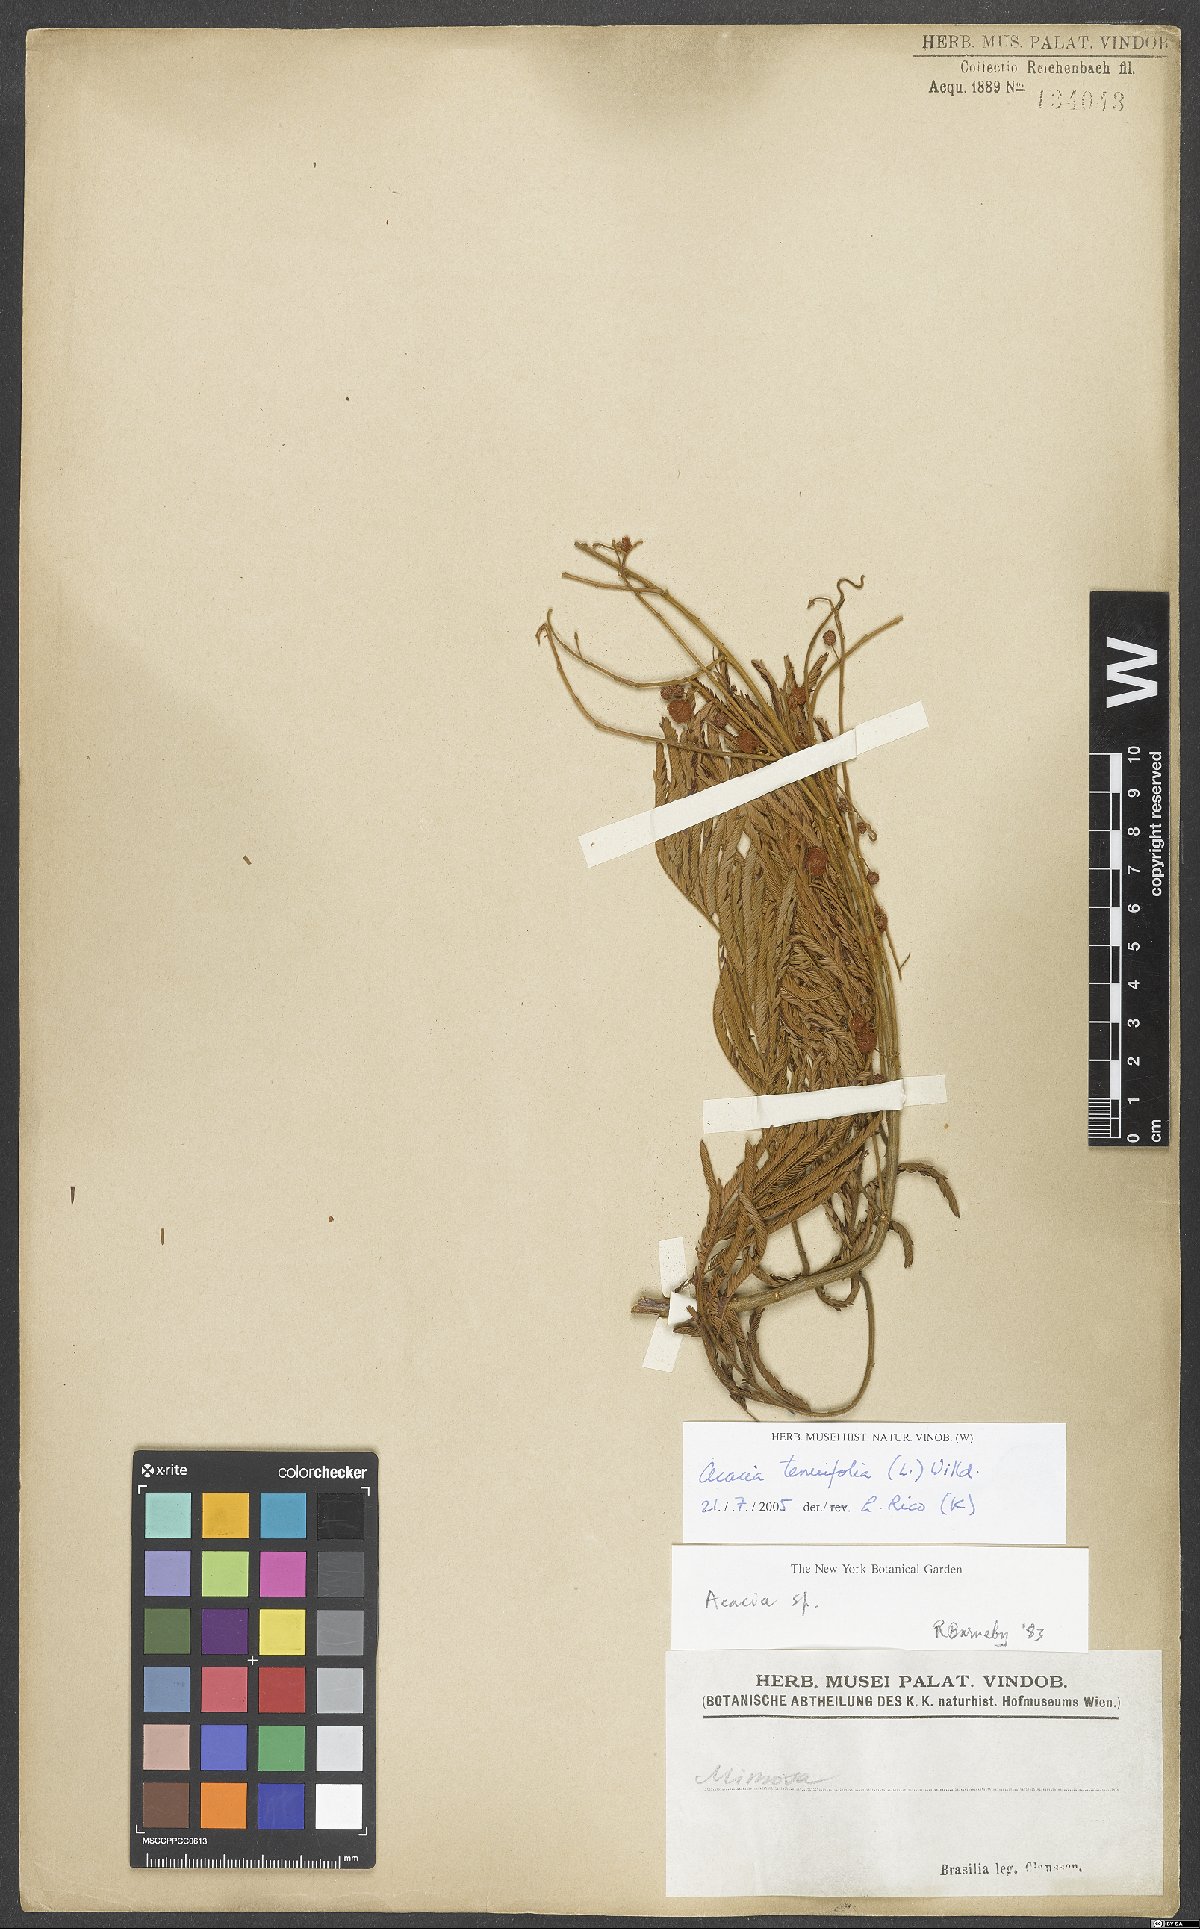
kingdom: Plantae
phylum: Tracheophyta
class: Magnoliopsida
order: Fabales
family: Fabaceae
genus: Senegalia
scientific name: Senegalia tenuifolia
